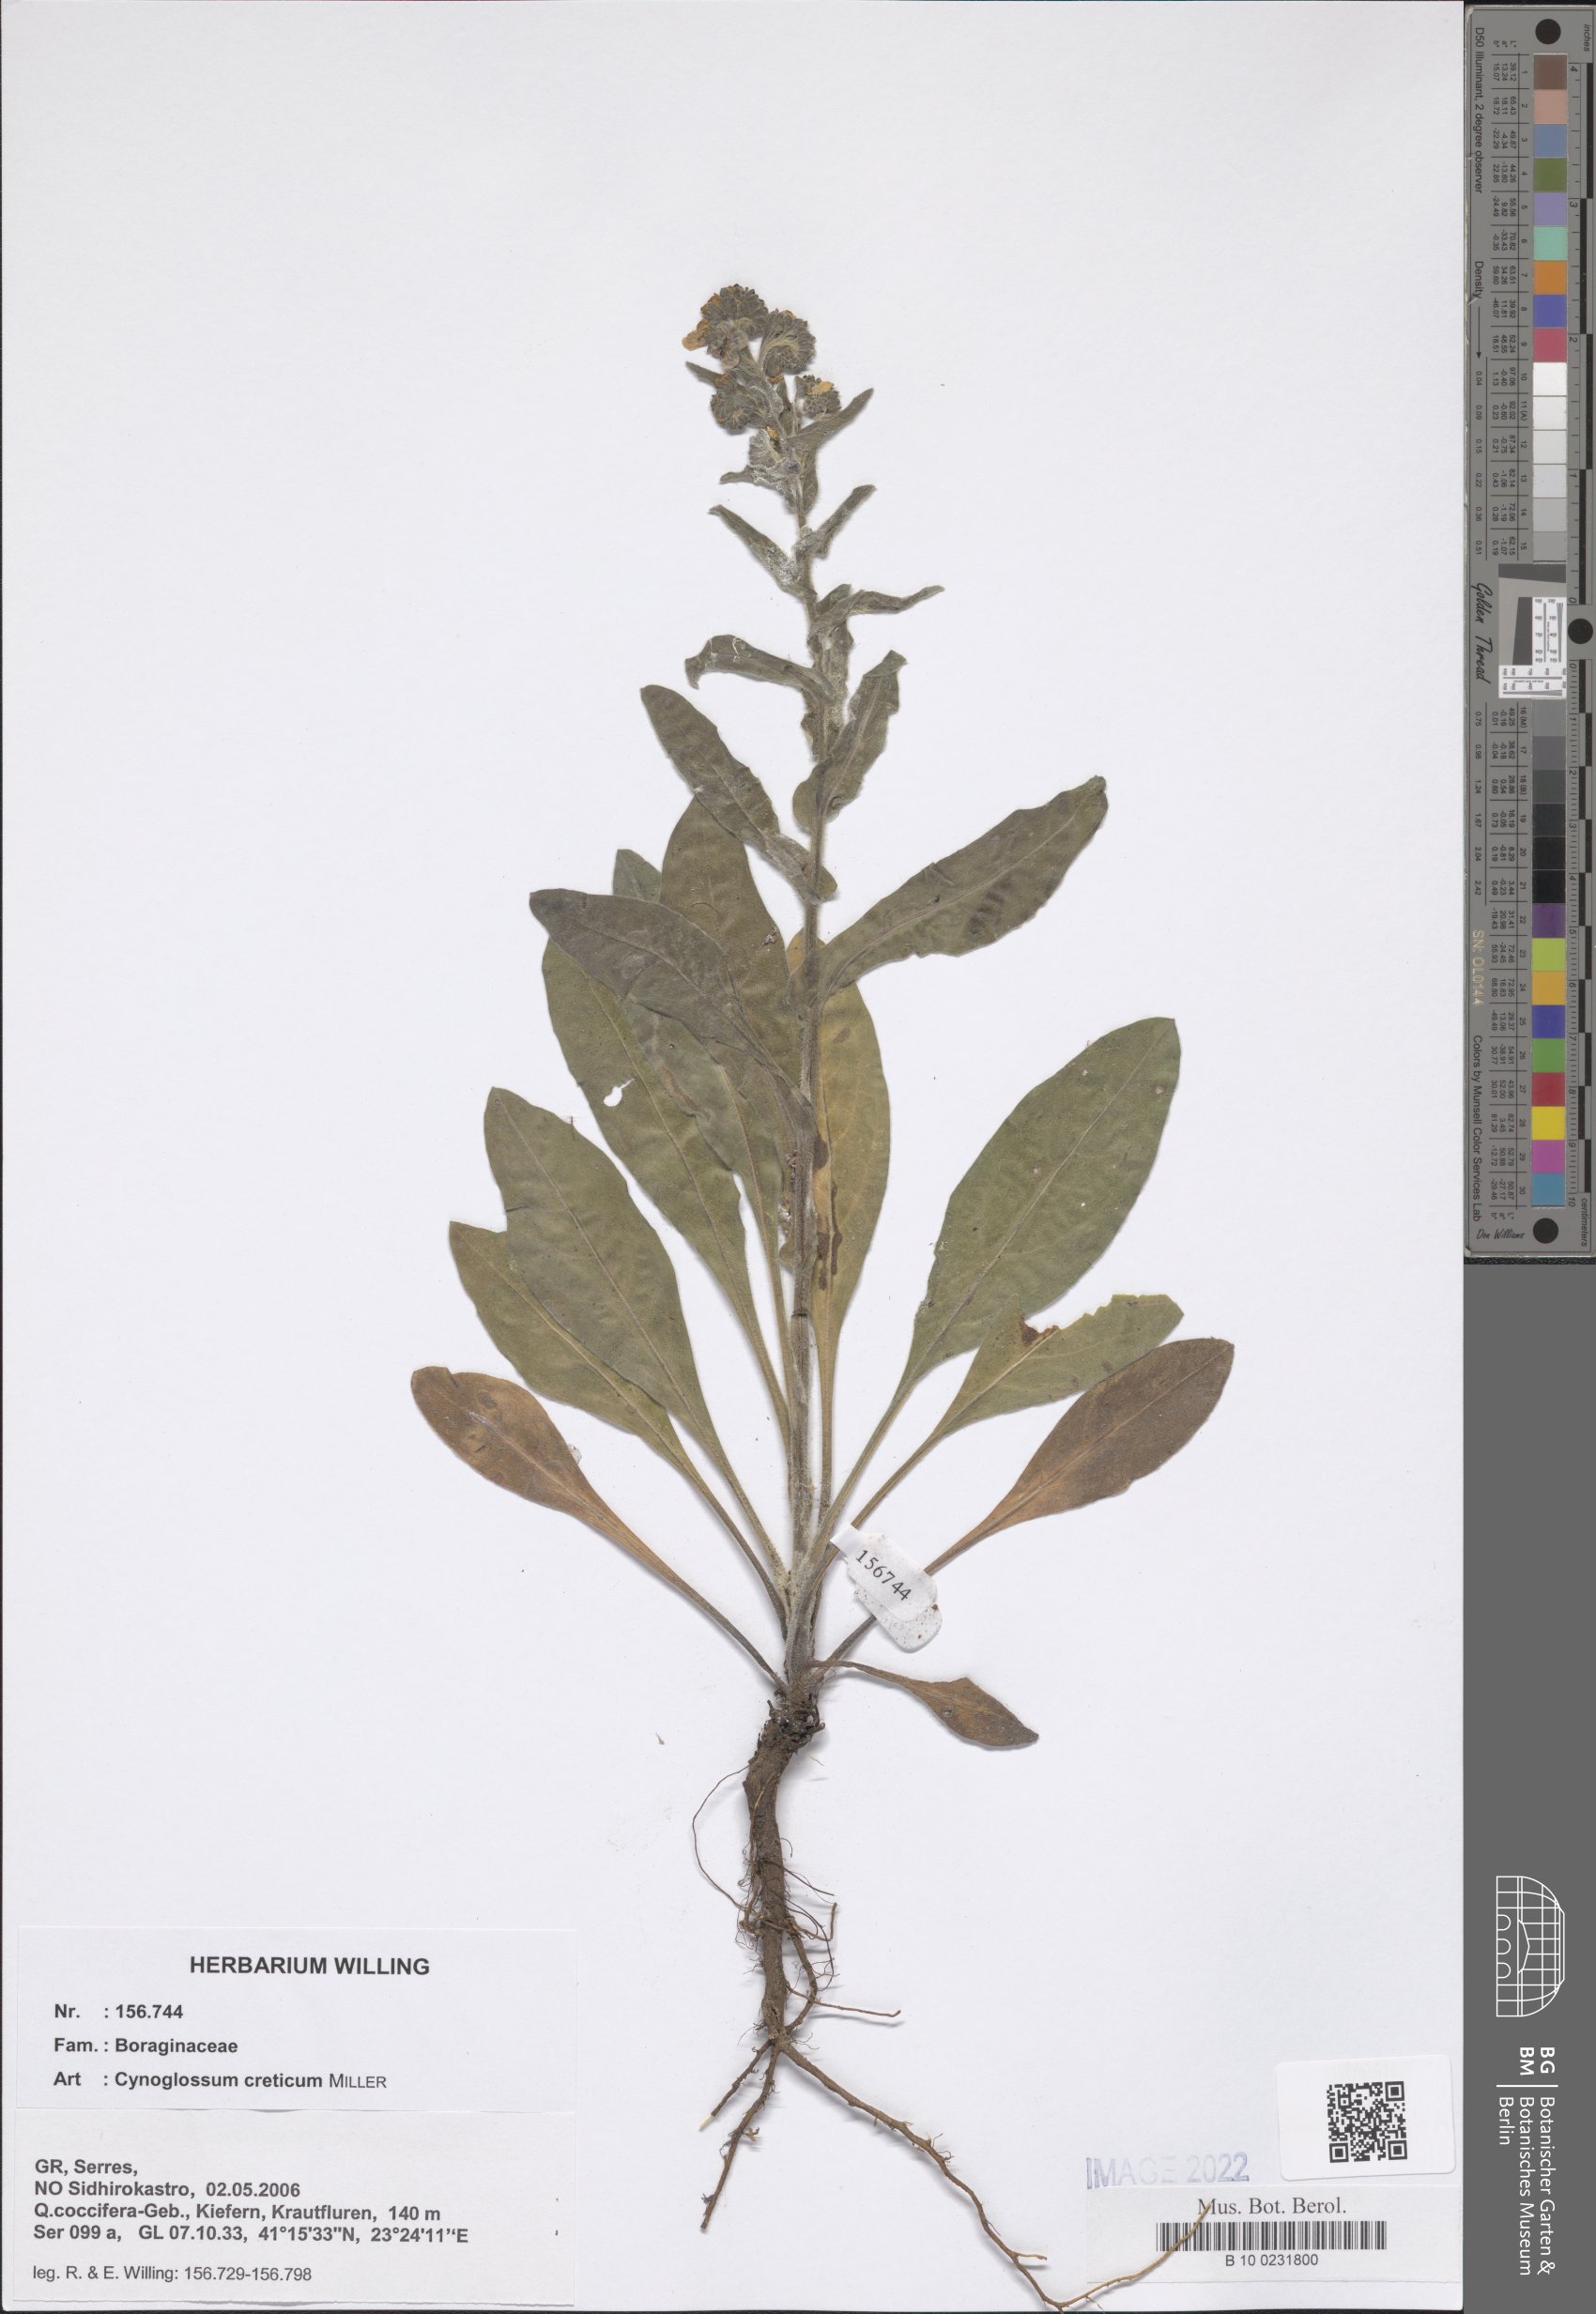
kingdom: Plantae
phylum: Tracheophyta
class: Magnoliopsida
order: Boraginales
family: Boraginaceae
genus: Cynoglossum
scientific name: Cynoglossum creticum
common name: Blue hound's tongue
